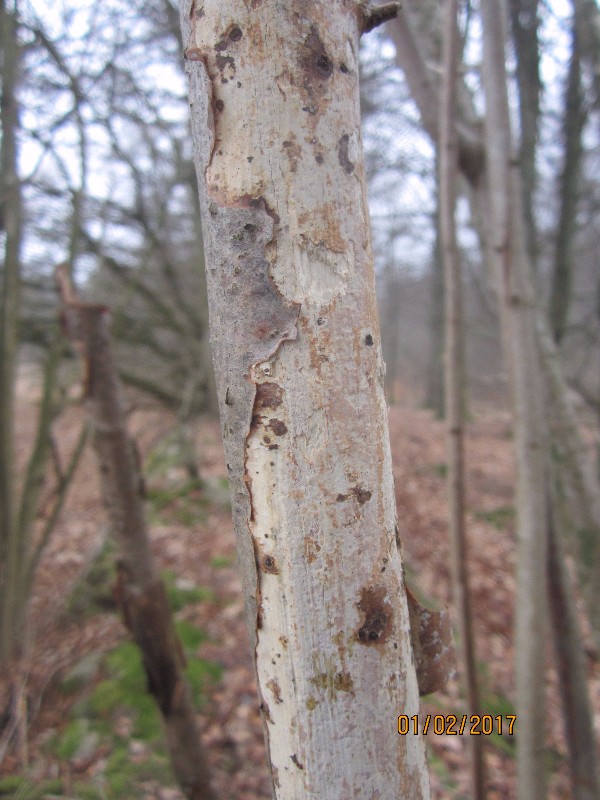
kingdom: Fungi
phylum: Basidiomycota
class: Agaricomycetes
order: Corticiales
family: Vuilleminiaceae
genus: Vuilleminia
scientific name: Vuilleminia coryli
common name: hassel-barksprænger
